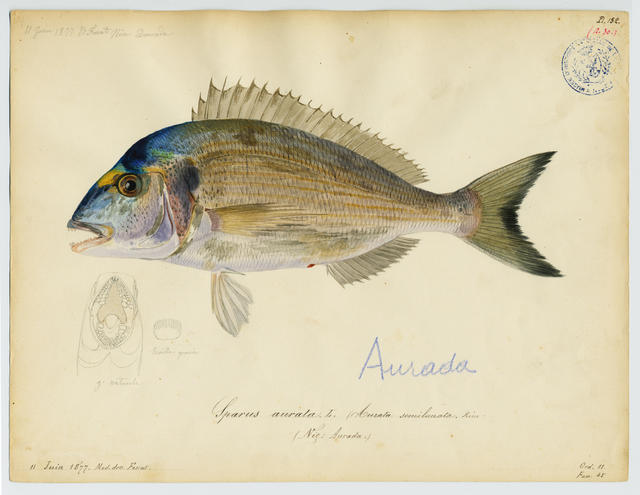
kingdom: Animalia
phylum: Chordata
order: Perciformes
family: Sparidae
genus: Sparus
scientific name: Sparus aurata
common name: Gilthead
